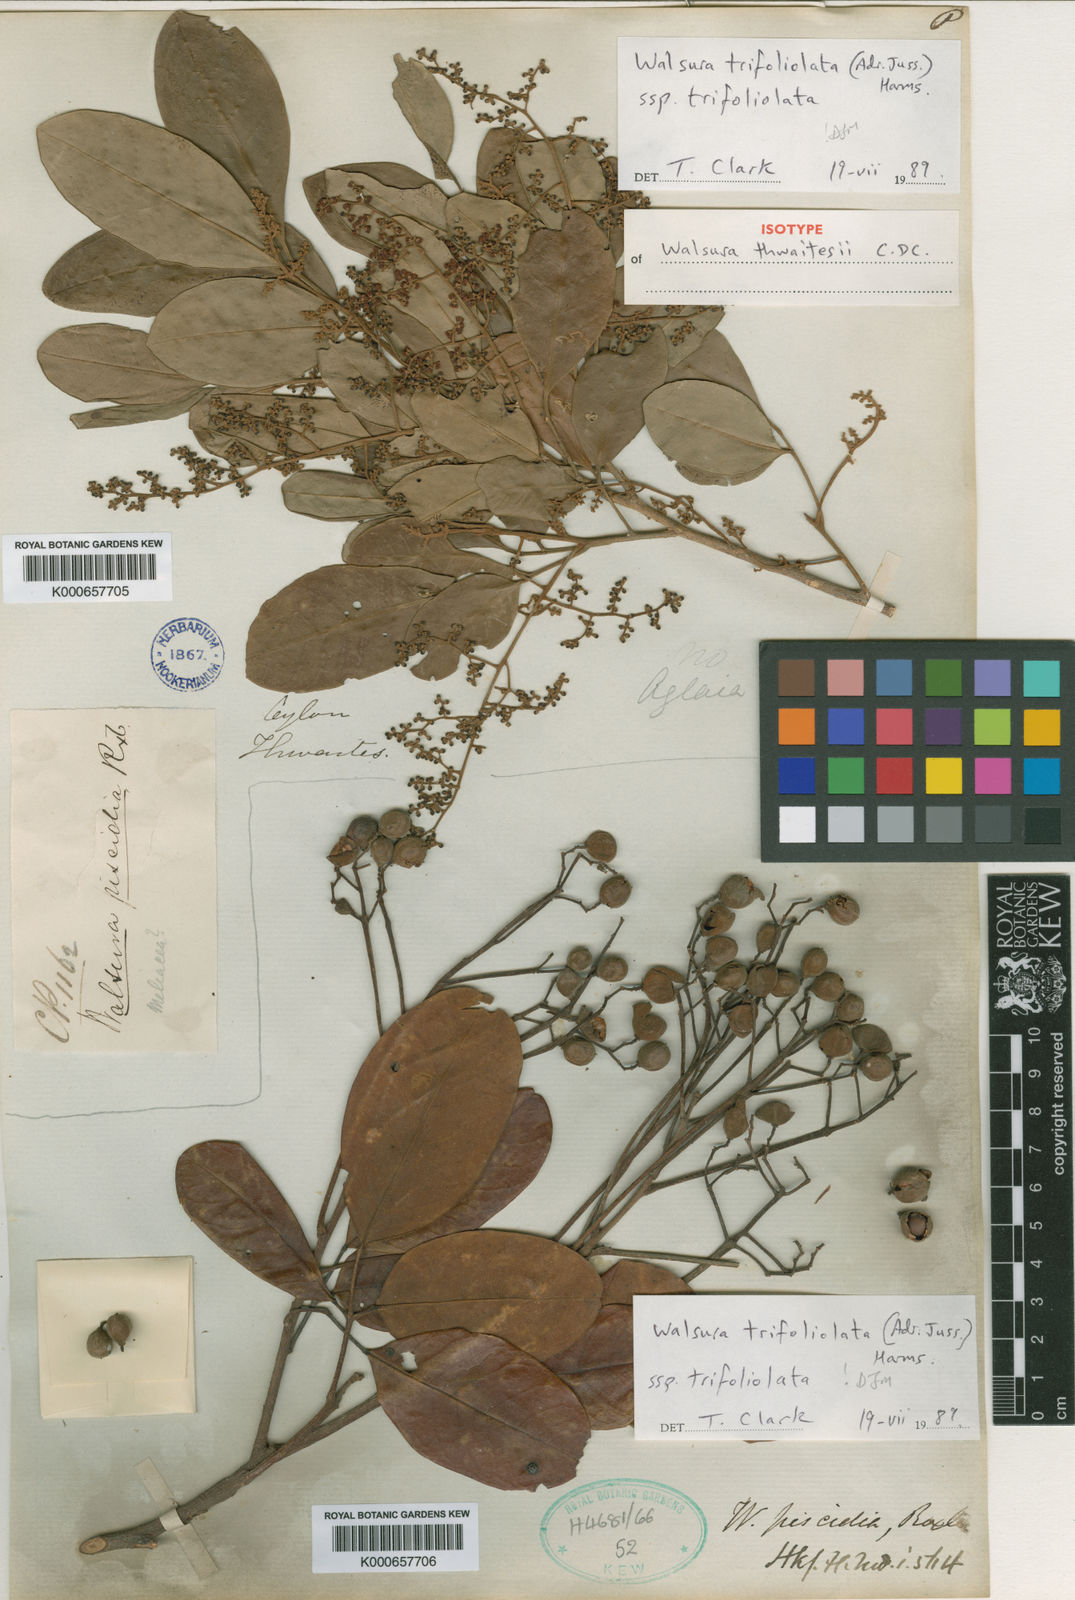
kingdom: Plantae
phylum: Tracheophyta
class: Magnoliopsida
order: Sapindales
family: Meliaceae
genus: Walsura
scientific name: Walsura trifoliolata
